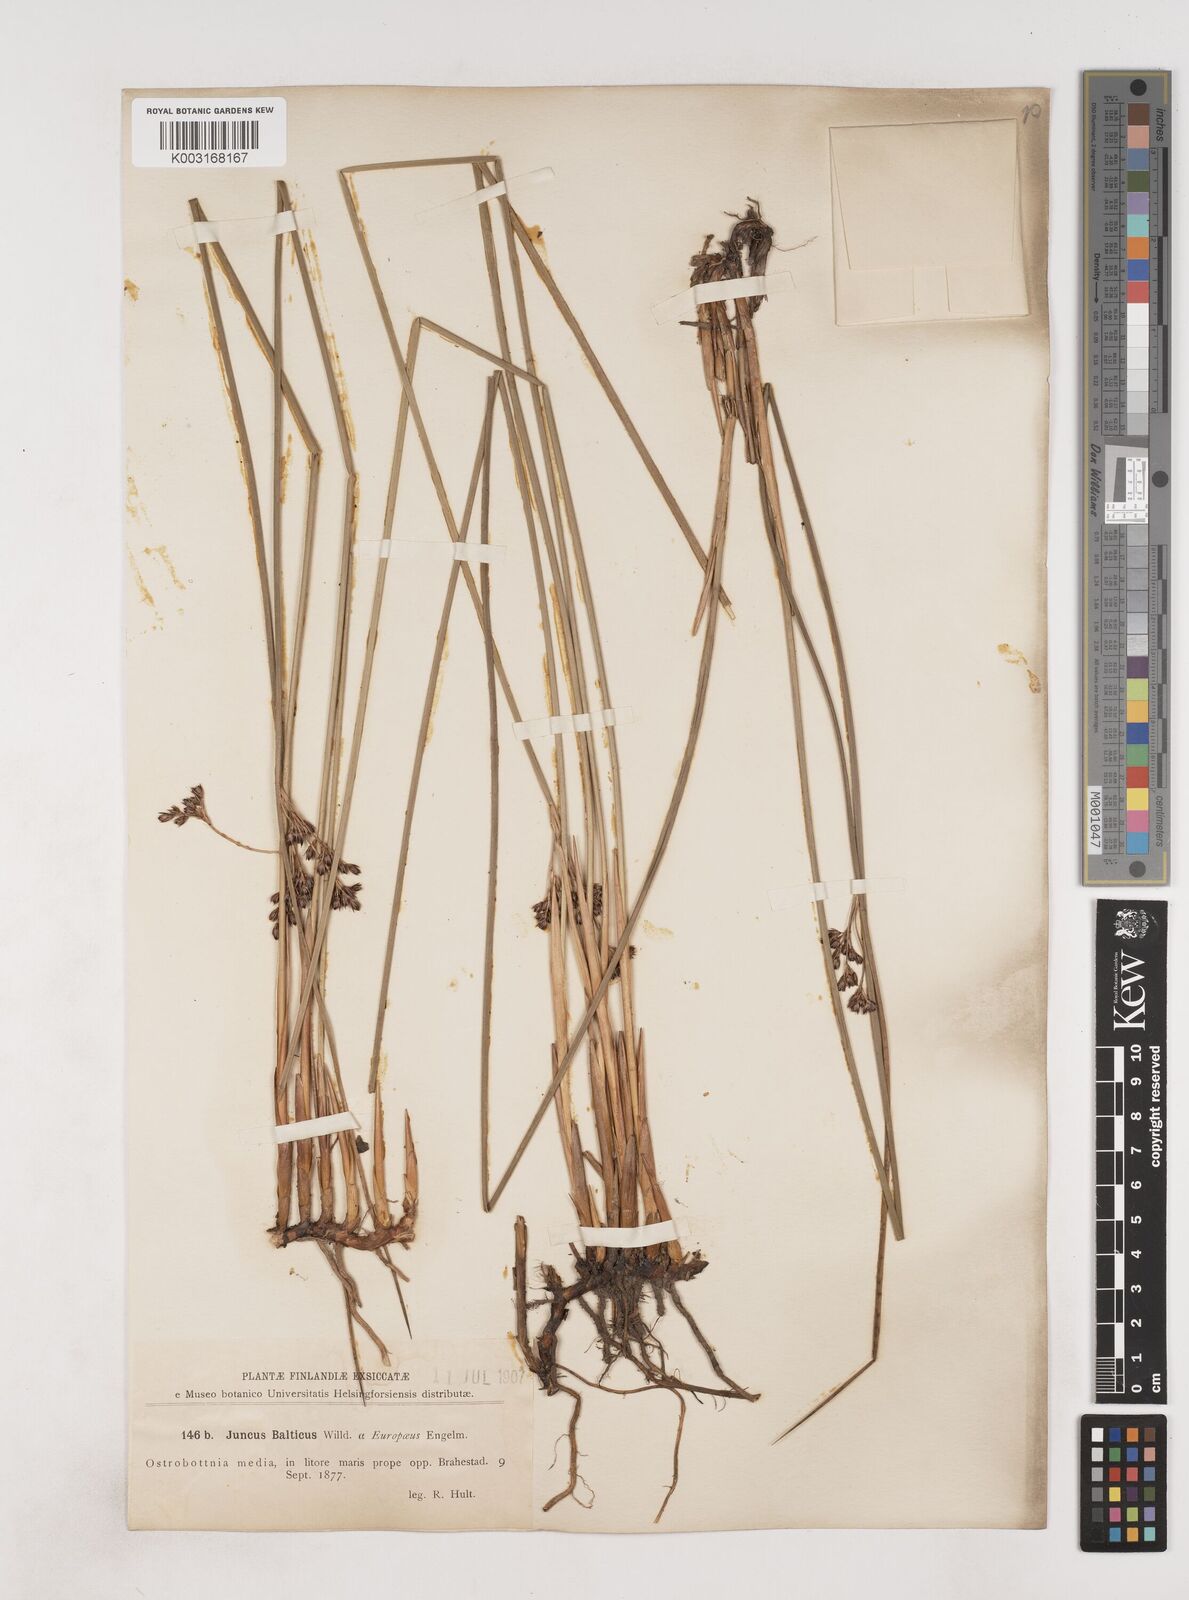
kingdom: Plantae
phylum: Tracheophyta
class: Liliopsida
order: Poales
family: Juncaceae
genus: Juncus
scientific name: Juncus balticus
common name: Baltic rush
